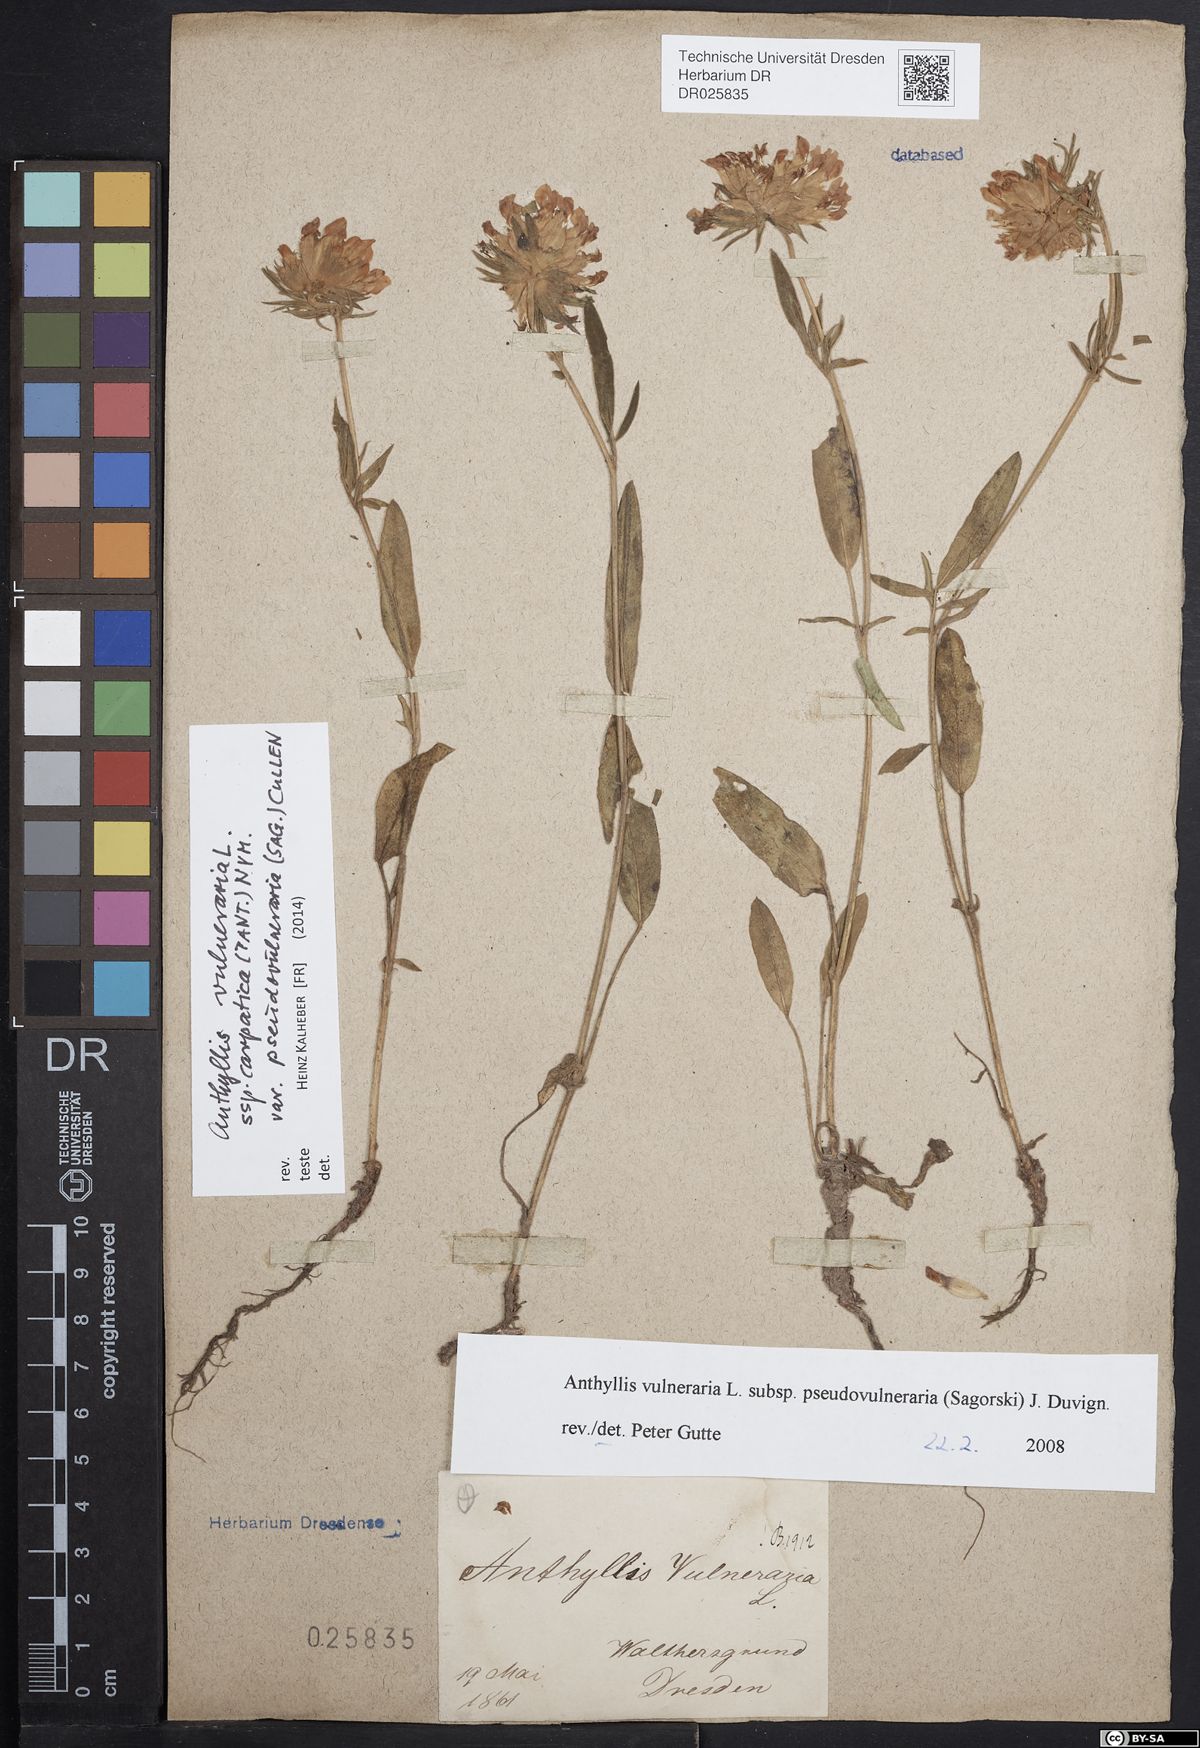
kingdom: Plantae
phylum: Tracheophyta
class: Magnoliopsida
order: Fabales
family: Fabaceae
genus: Anthyllis
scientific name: Anthyllis vulneraria
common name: Kidney vetch
